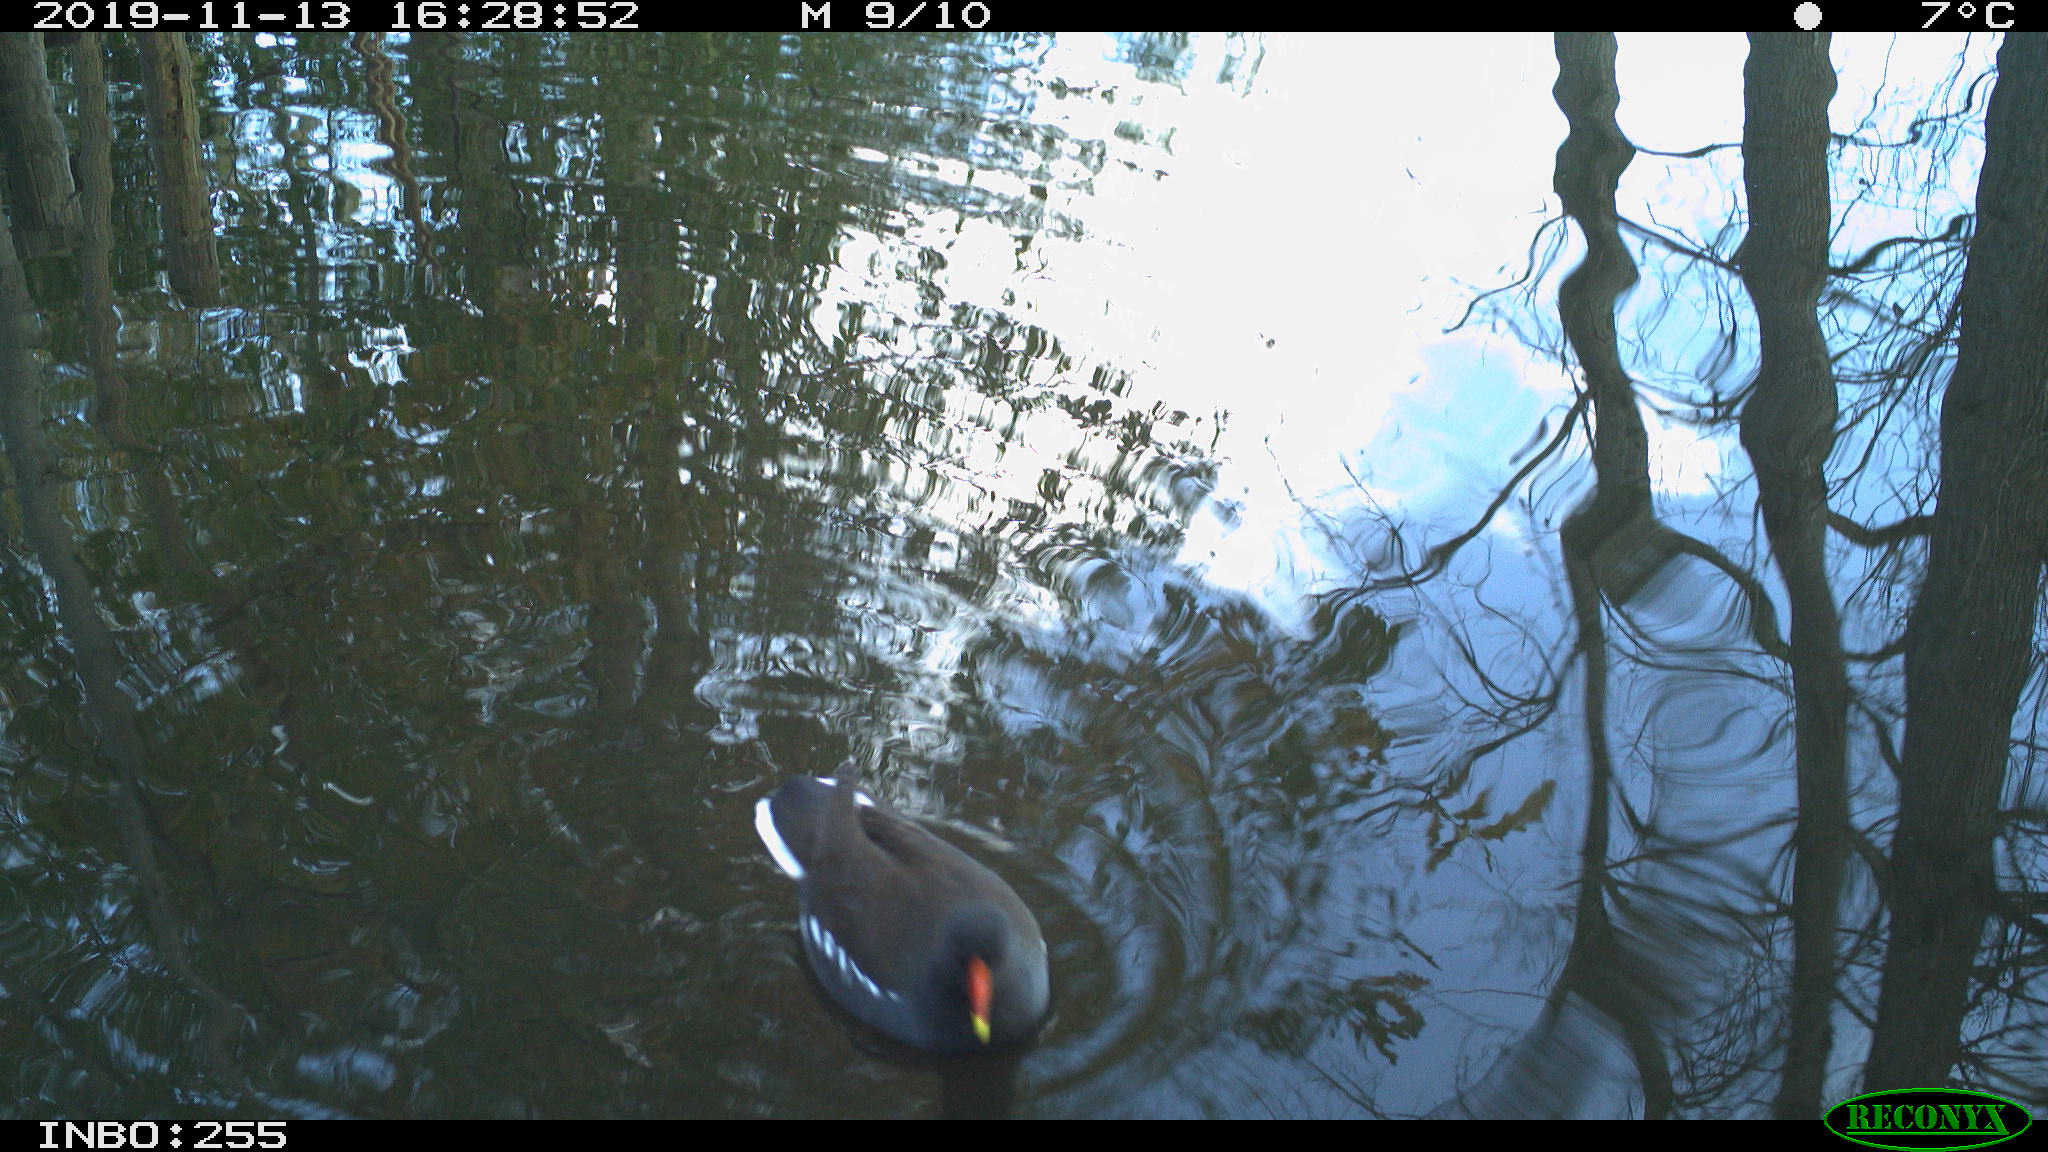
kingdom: Animalia
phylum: Chordata
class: Aves
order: Gruiformes
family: Rallidae
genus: Gallinula
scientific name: Gallinula chloropus
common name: Common moorhen
